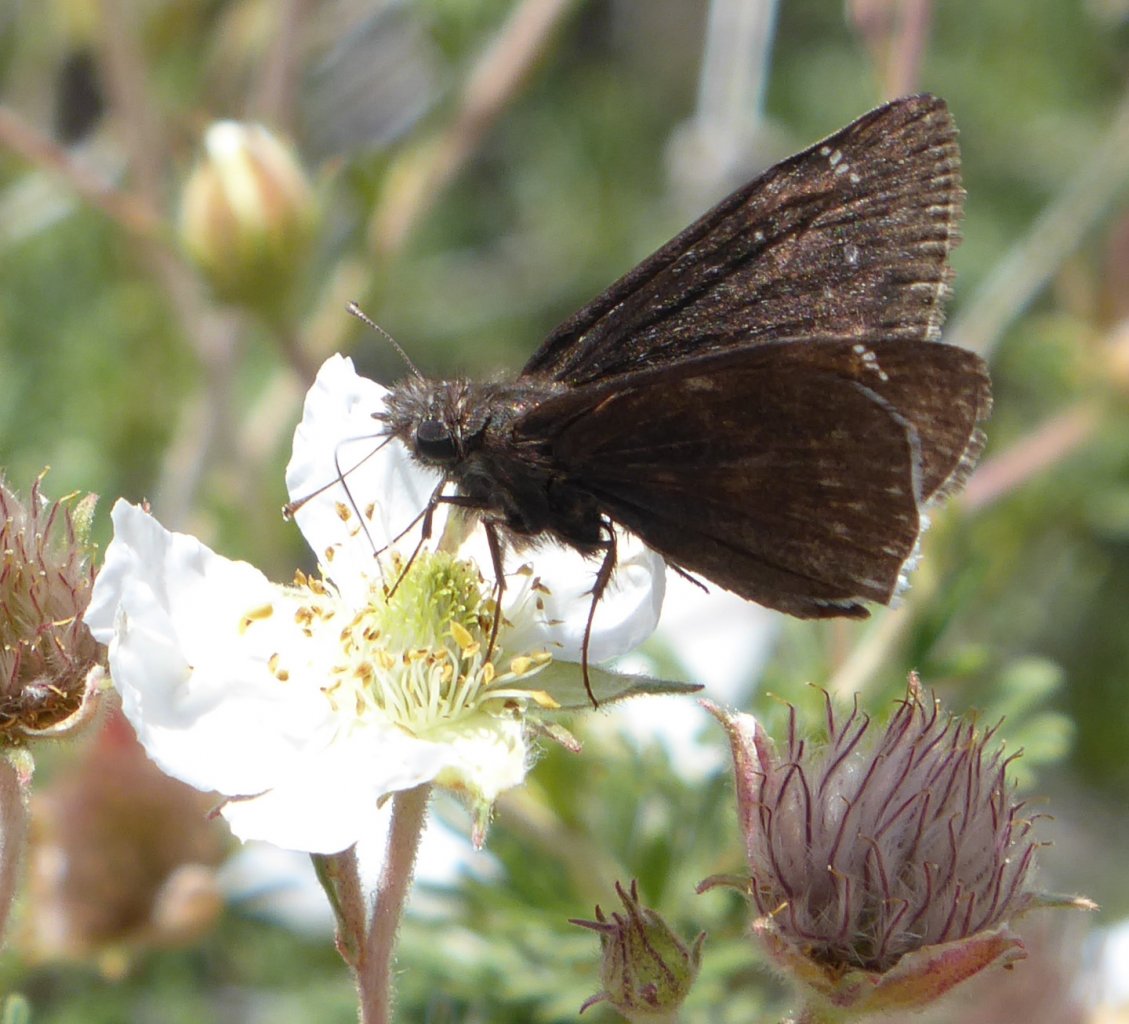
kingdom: Animalia
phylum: Arthropoda
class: Insecta
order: Lepidoptera
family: Hesperiidae
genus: Erynnis
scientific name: Erynnis funeralis
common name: Funereal Duskywing
